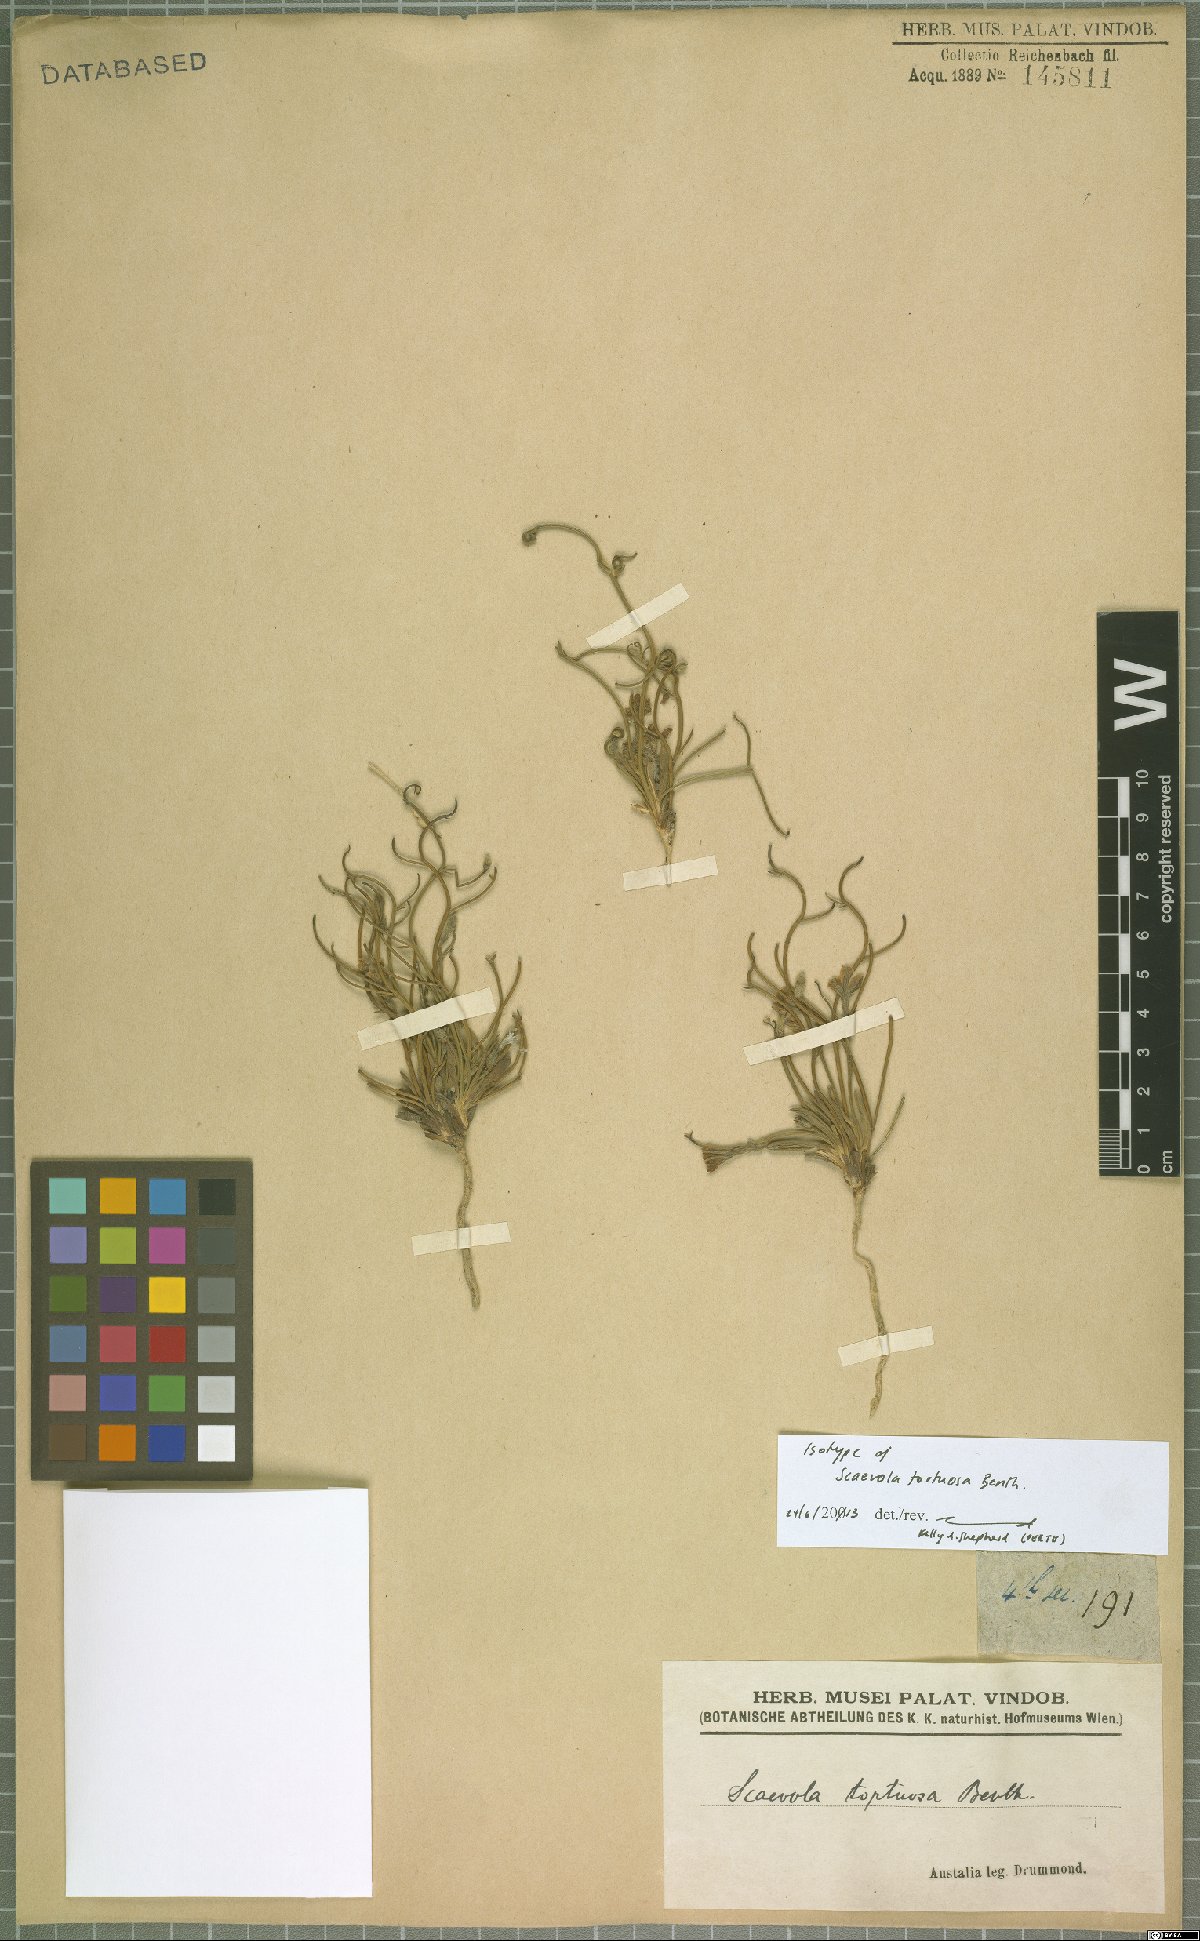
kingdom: Plantae
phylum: Tracheophyta
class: Magnoliopsida
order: Asterales
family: Goodeniaceae
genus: Scaevola
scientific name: Scaevola tortuosa
